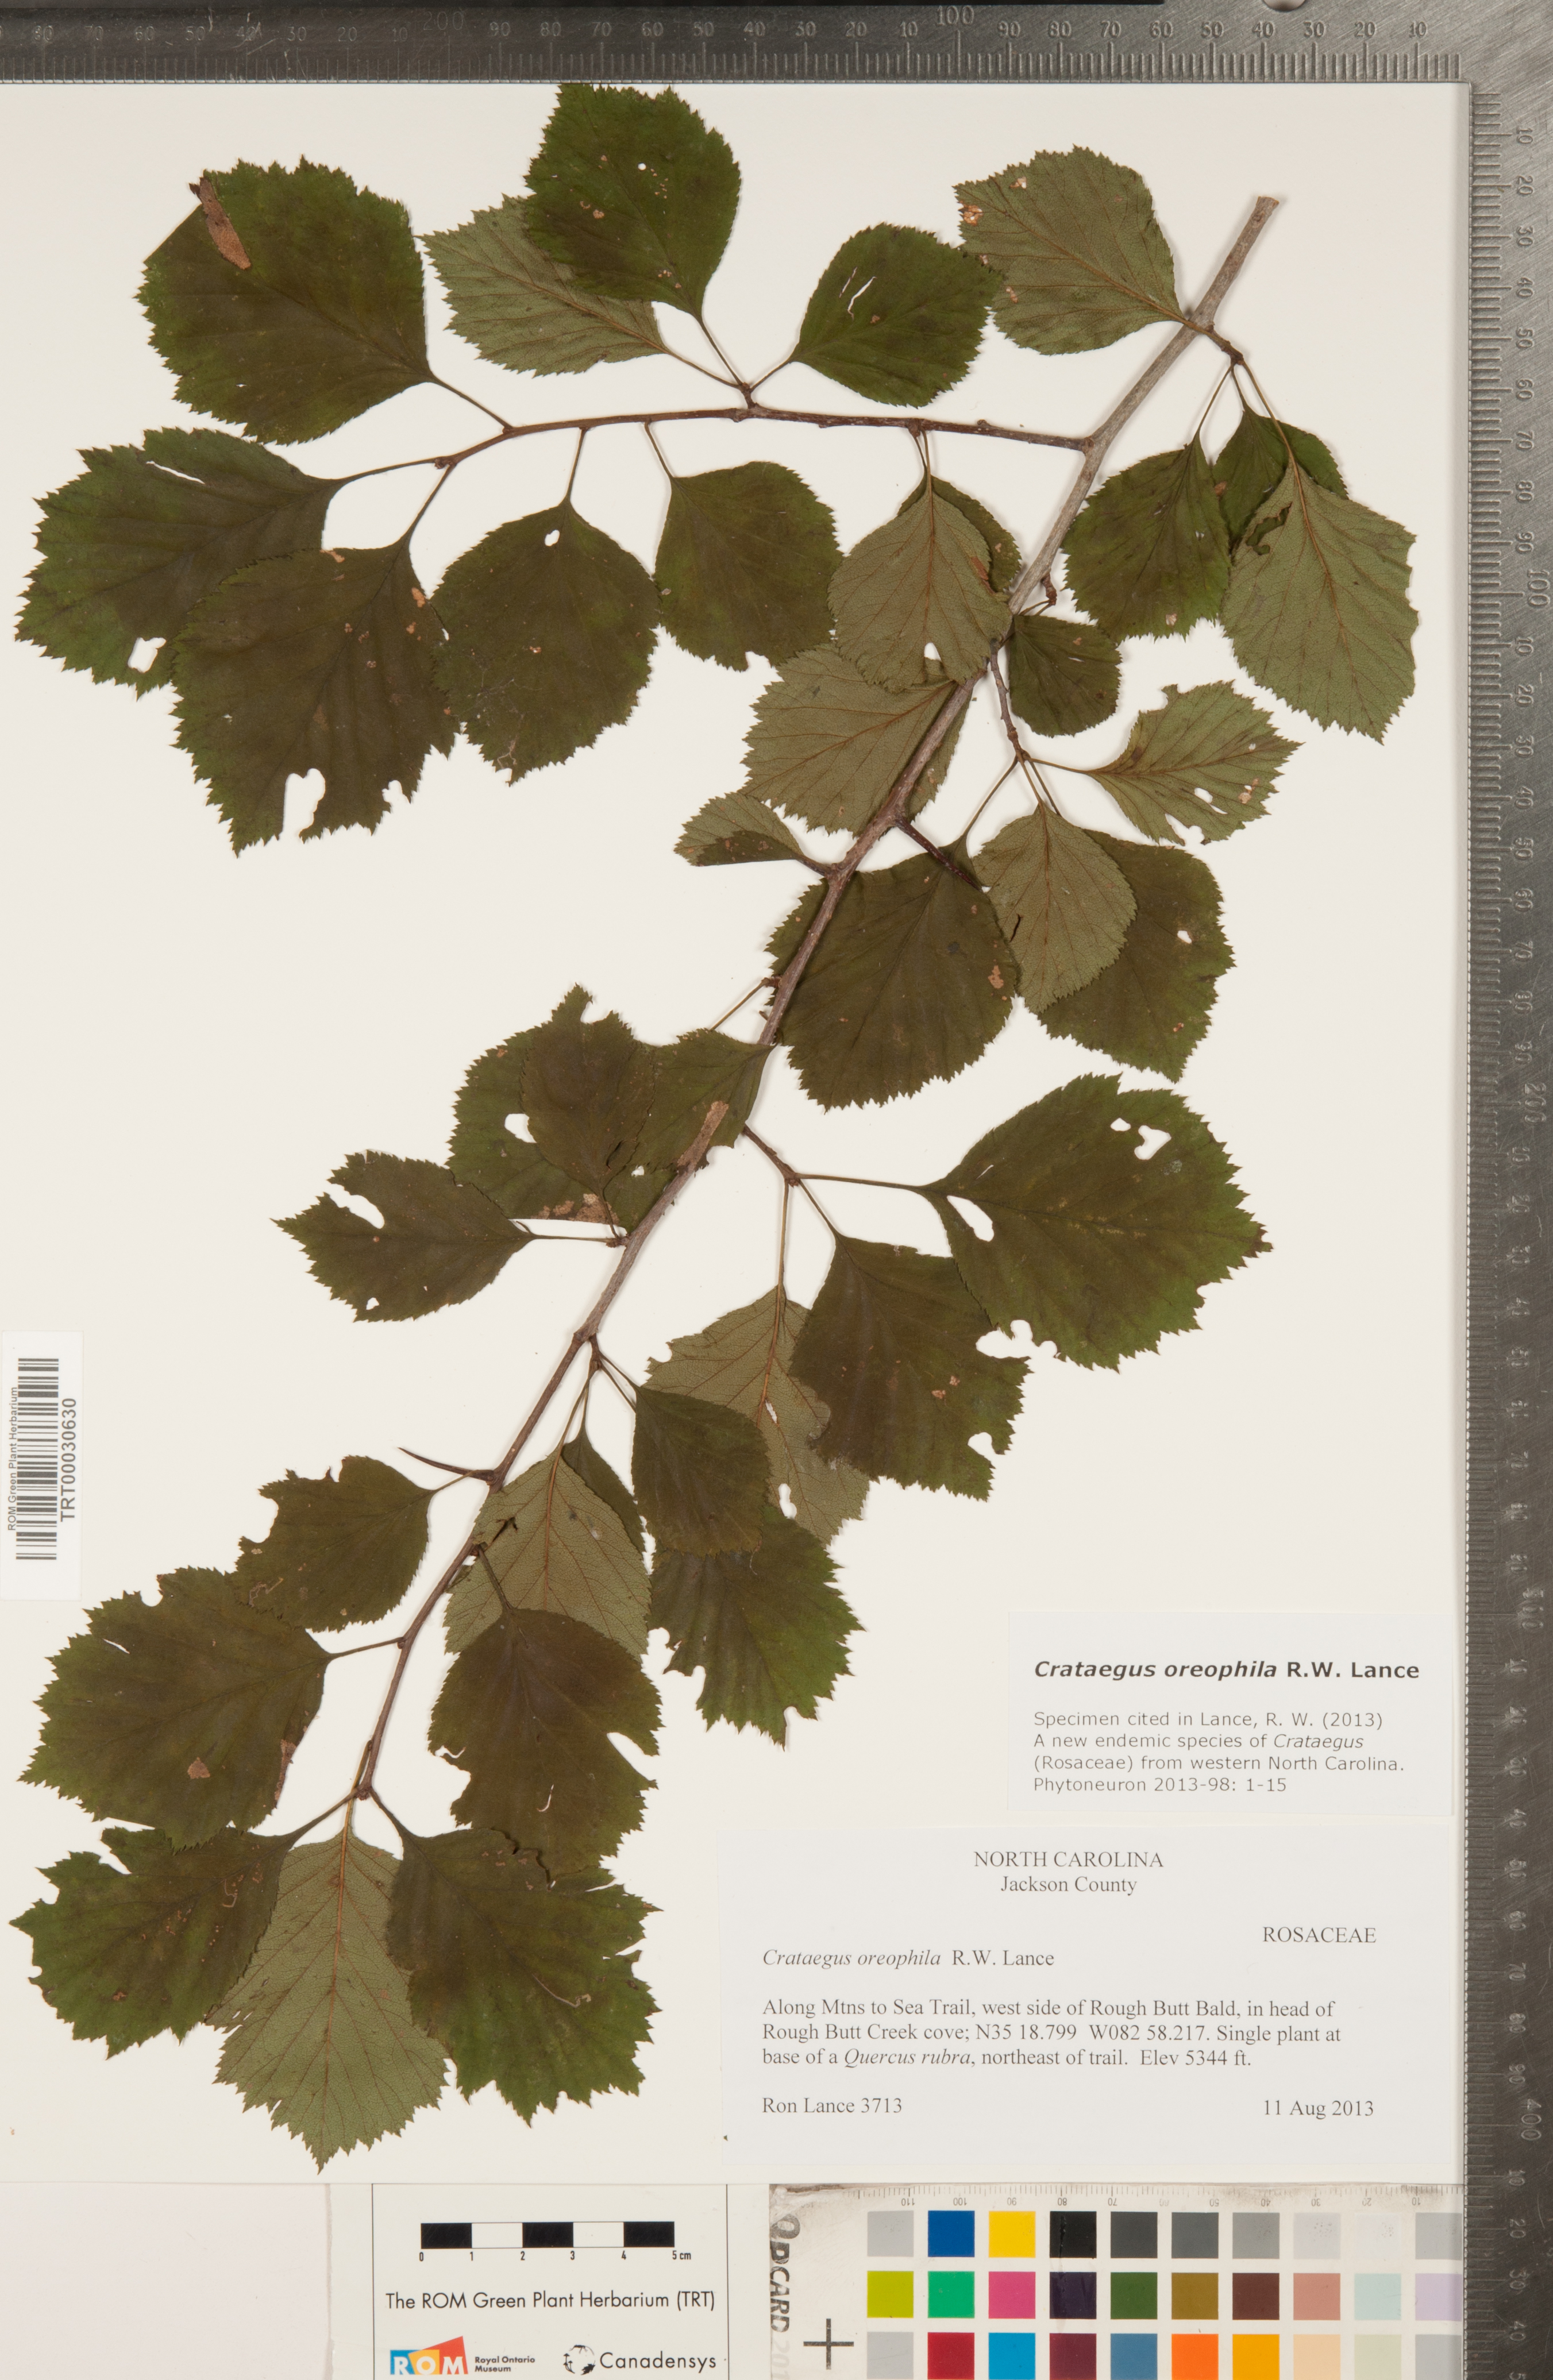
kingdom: Plantae
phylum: Tracheophyta
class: Magnoliopsida
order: Rosales
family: Rosaceae
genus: Crataegus
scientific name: Crataegus oreophila
